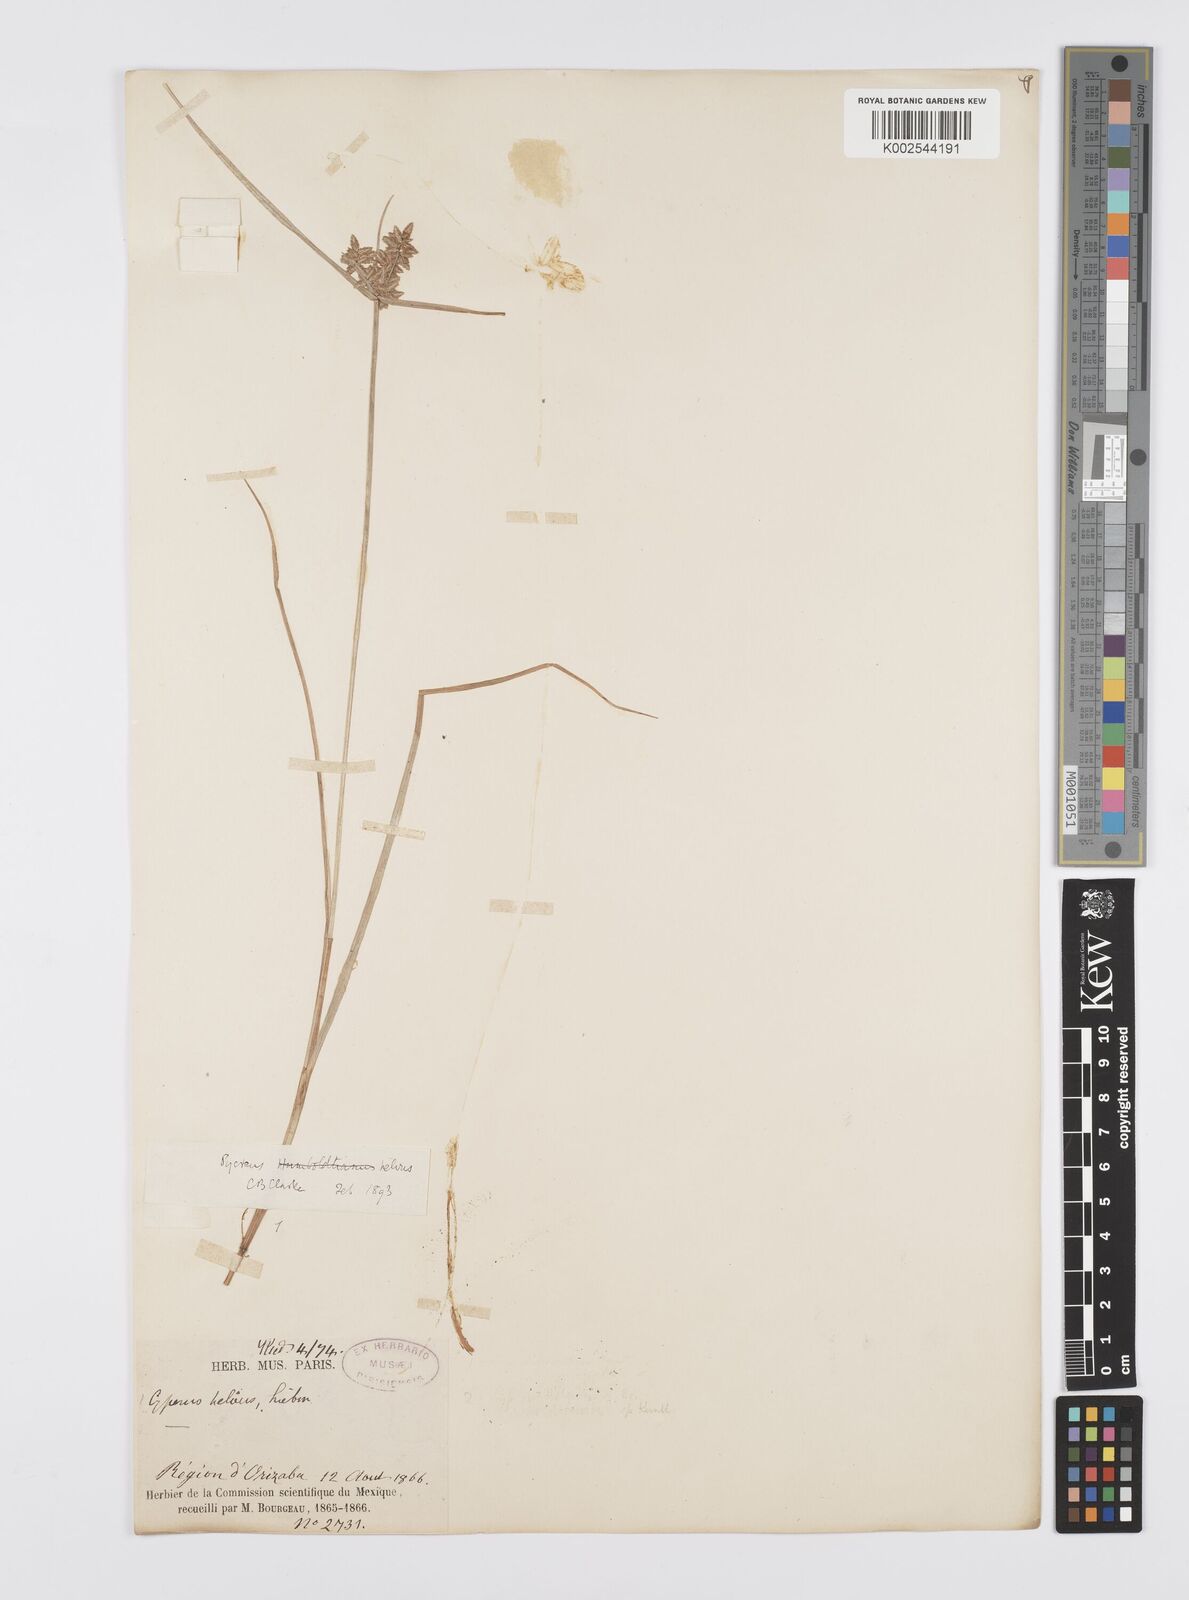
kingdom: Plantae
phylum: Tracheophyta
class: Liliopsida
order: Poales
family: Cyperaceae
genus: Cyperus
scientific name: Cyperus
